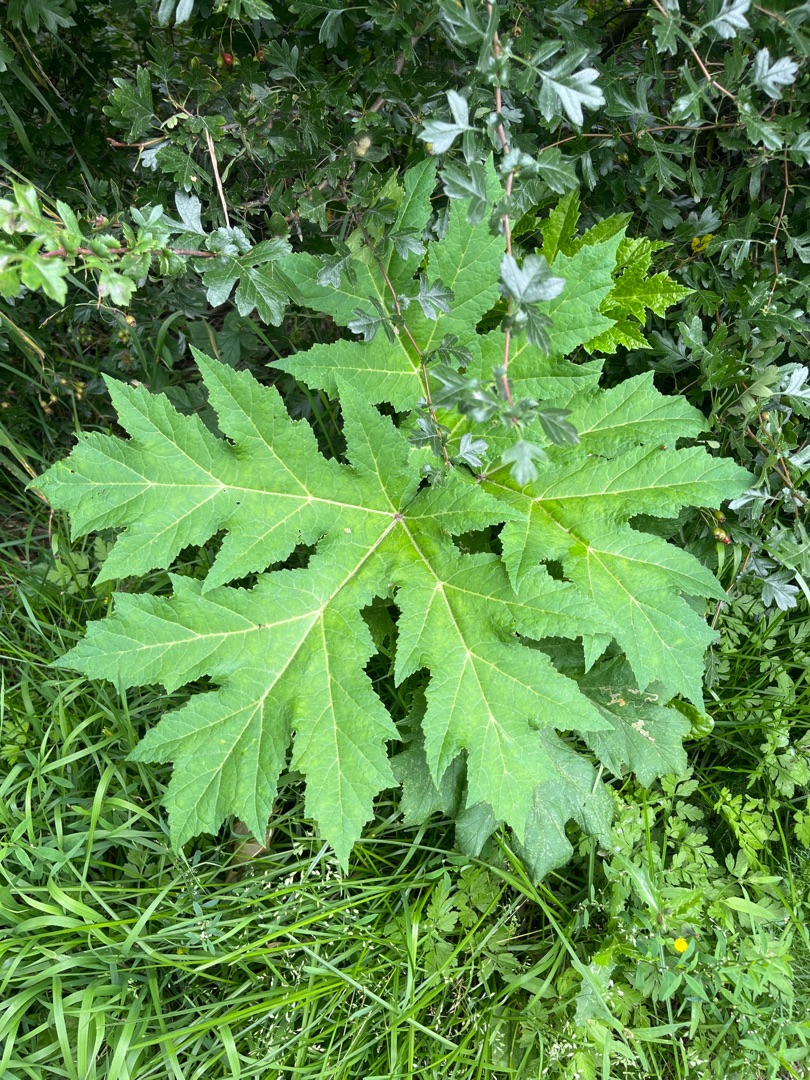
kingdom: Plantae
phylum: Tracheophyta
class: Magnoliopsida
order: Apiales
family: Apiaceae
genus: Heracleum
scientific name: Heracleum mantegazzianum
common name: Kæmpe-bjørneklo
